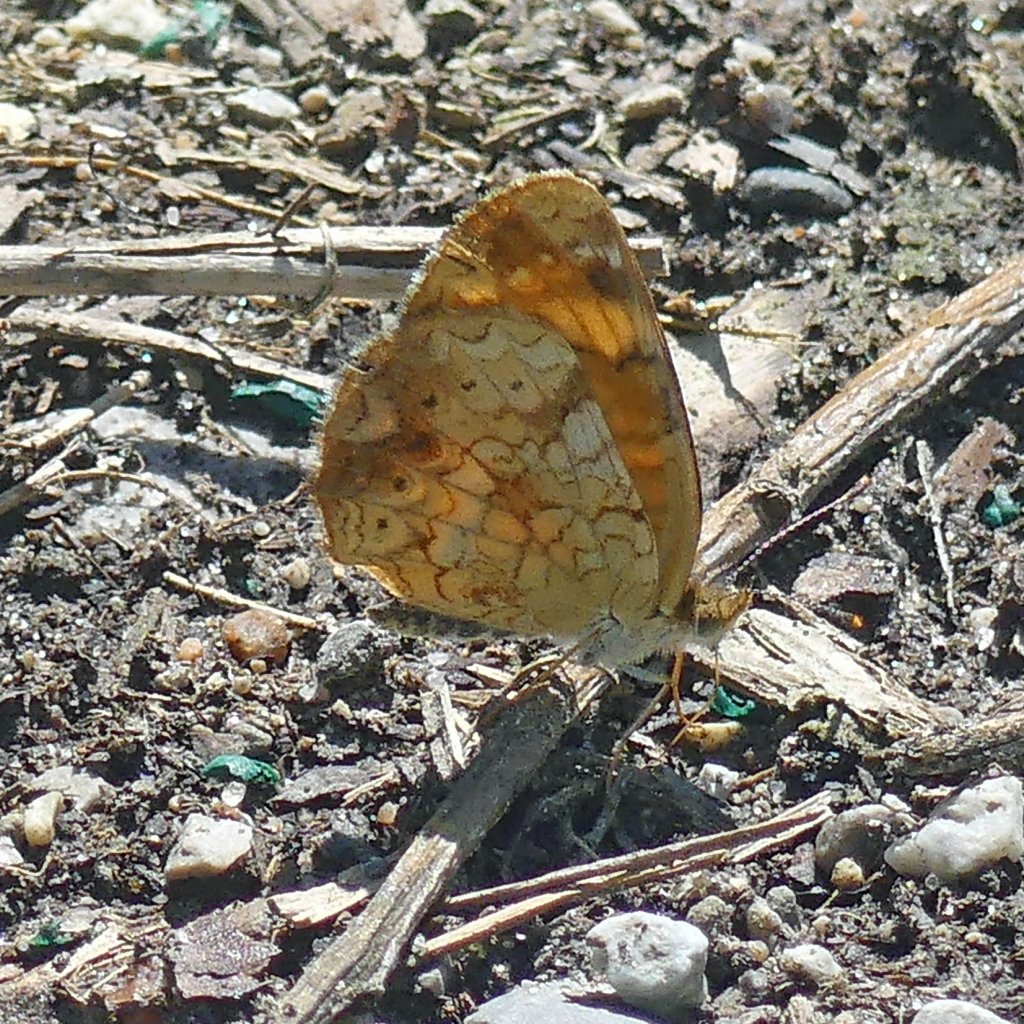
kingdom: Animalia
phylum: Arthropoda
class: Insecta
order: Lepidoptera
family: Nymphalidae
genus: Phyciodes
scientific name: Phyciodes tharos
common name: Northern Crescent
